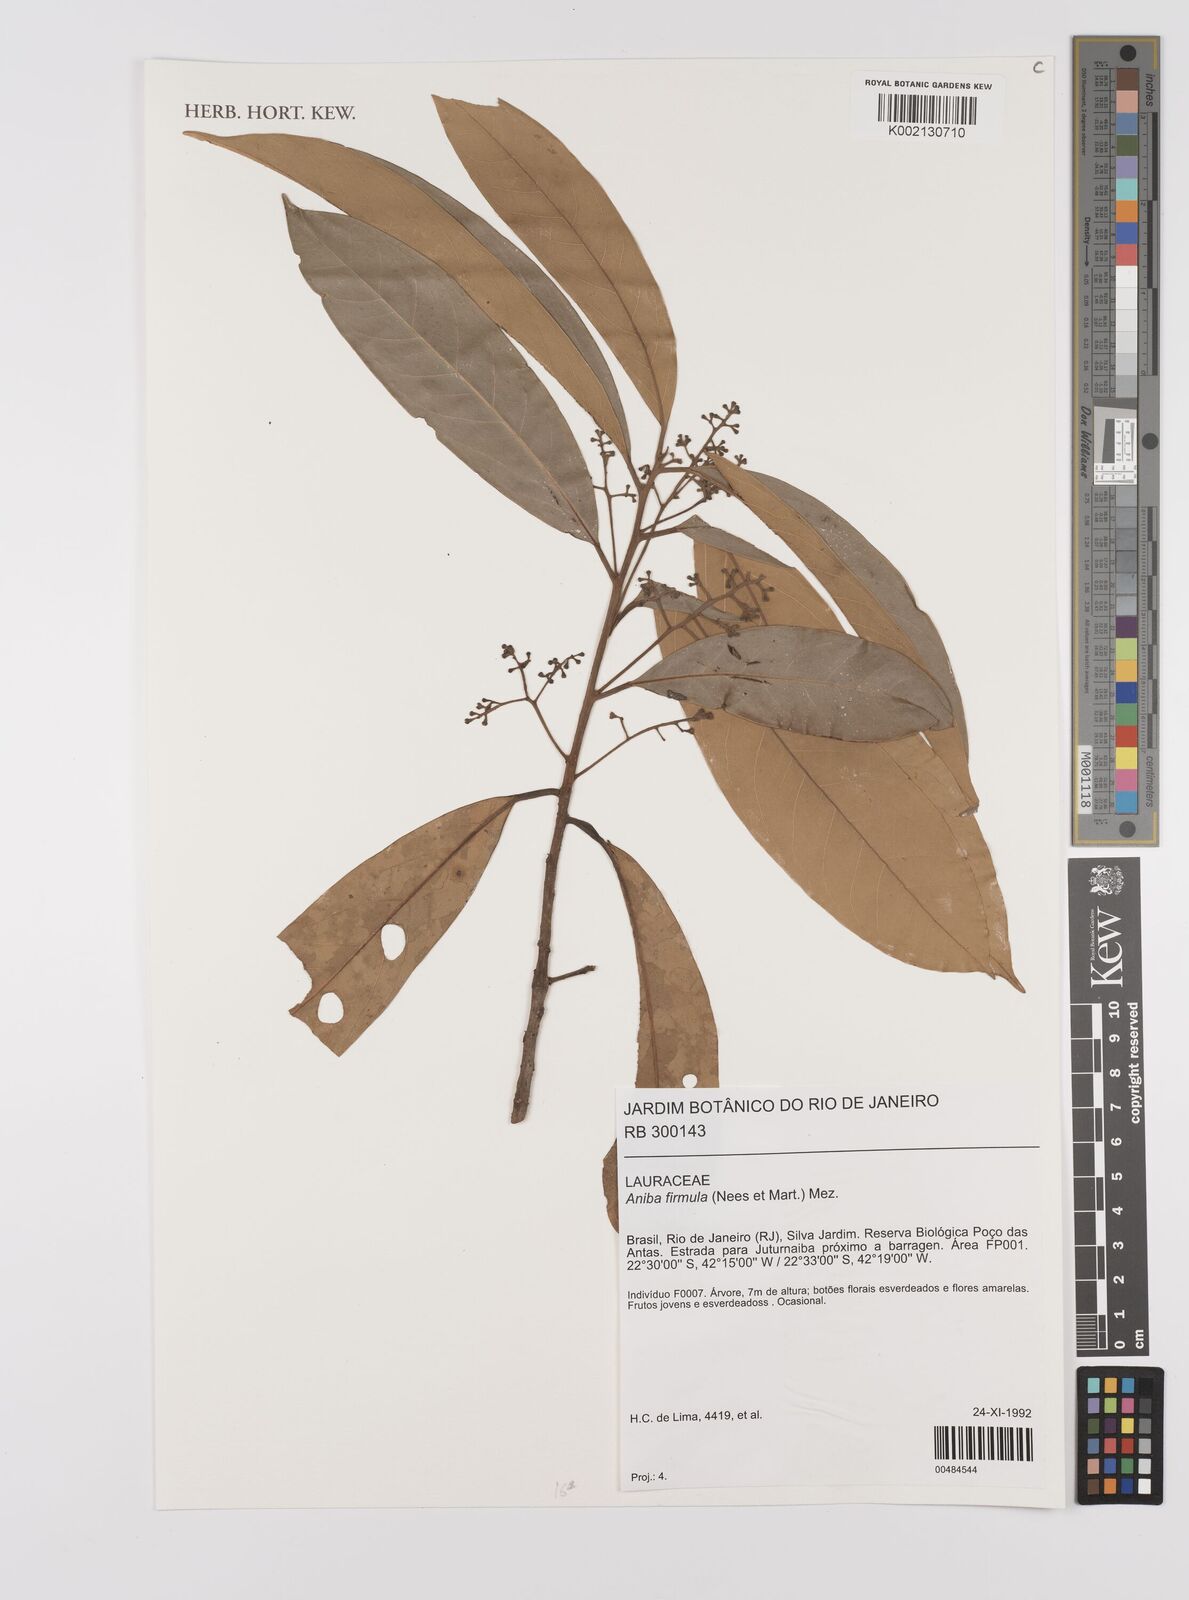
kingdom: Plantae
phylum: Tracheophyta
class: Magnoliopsida
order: Laurales
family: Lauraceae
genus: Aniba
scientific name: Aniba firmula
